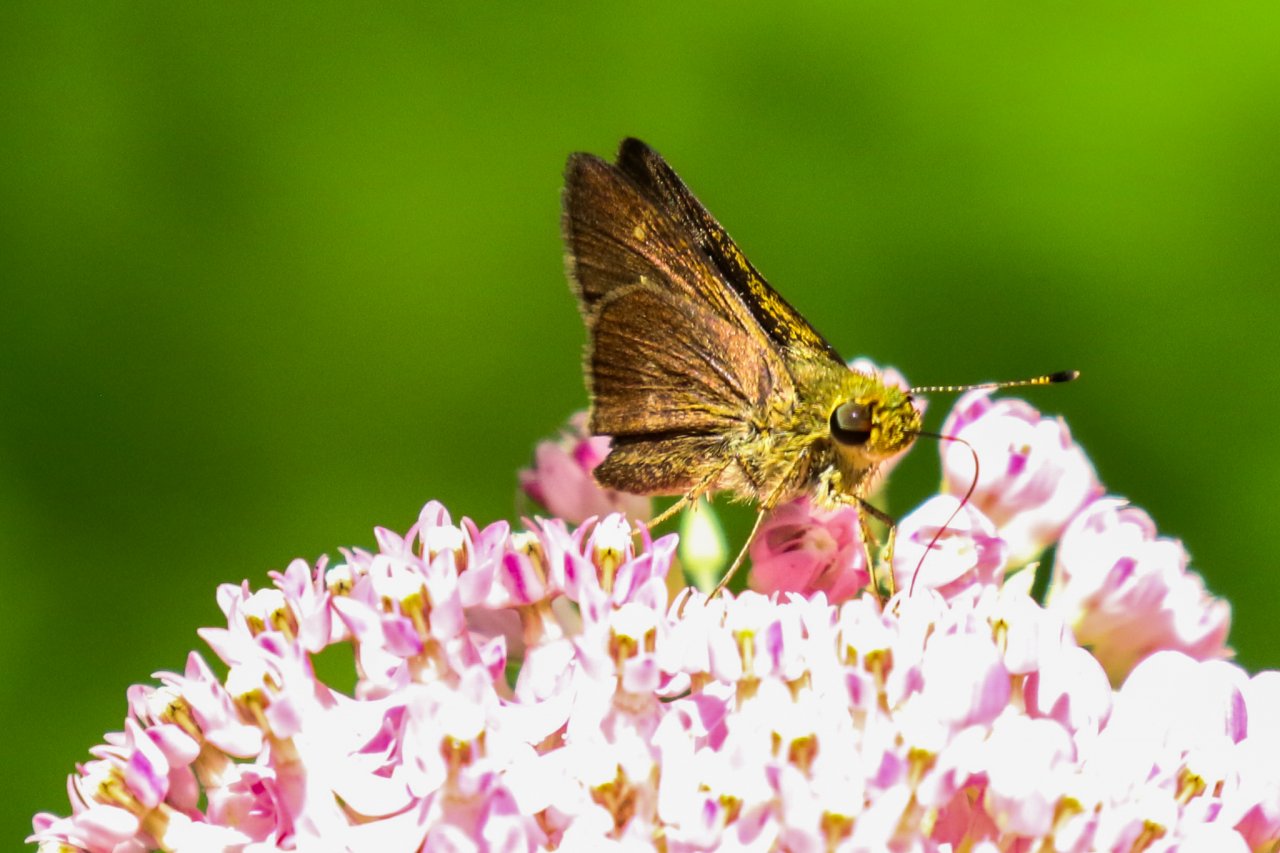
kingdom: Animalia
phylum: Arthropoda
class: Insecta
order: Lepidoptera
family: Hesperiidae
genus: Euphyes
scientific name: Euphyes vestris
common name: Dun Skipper
